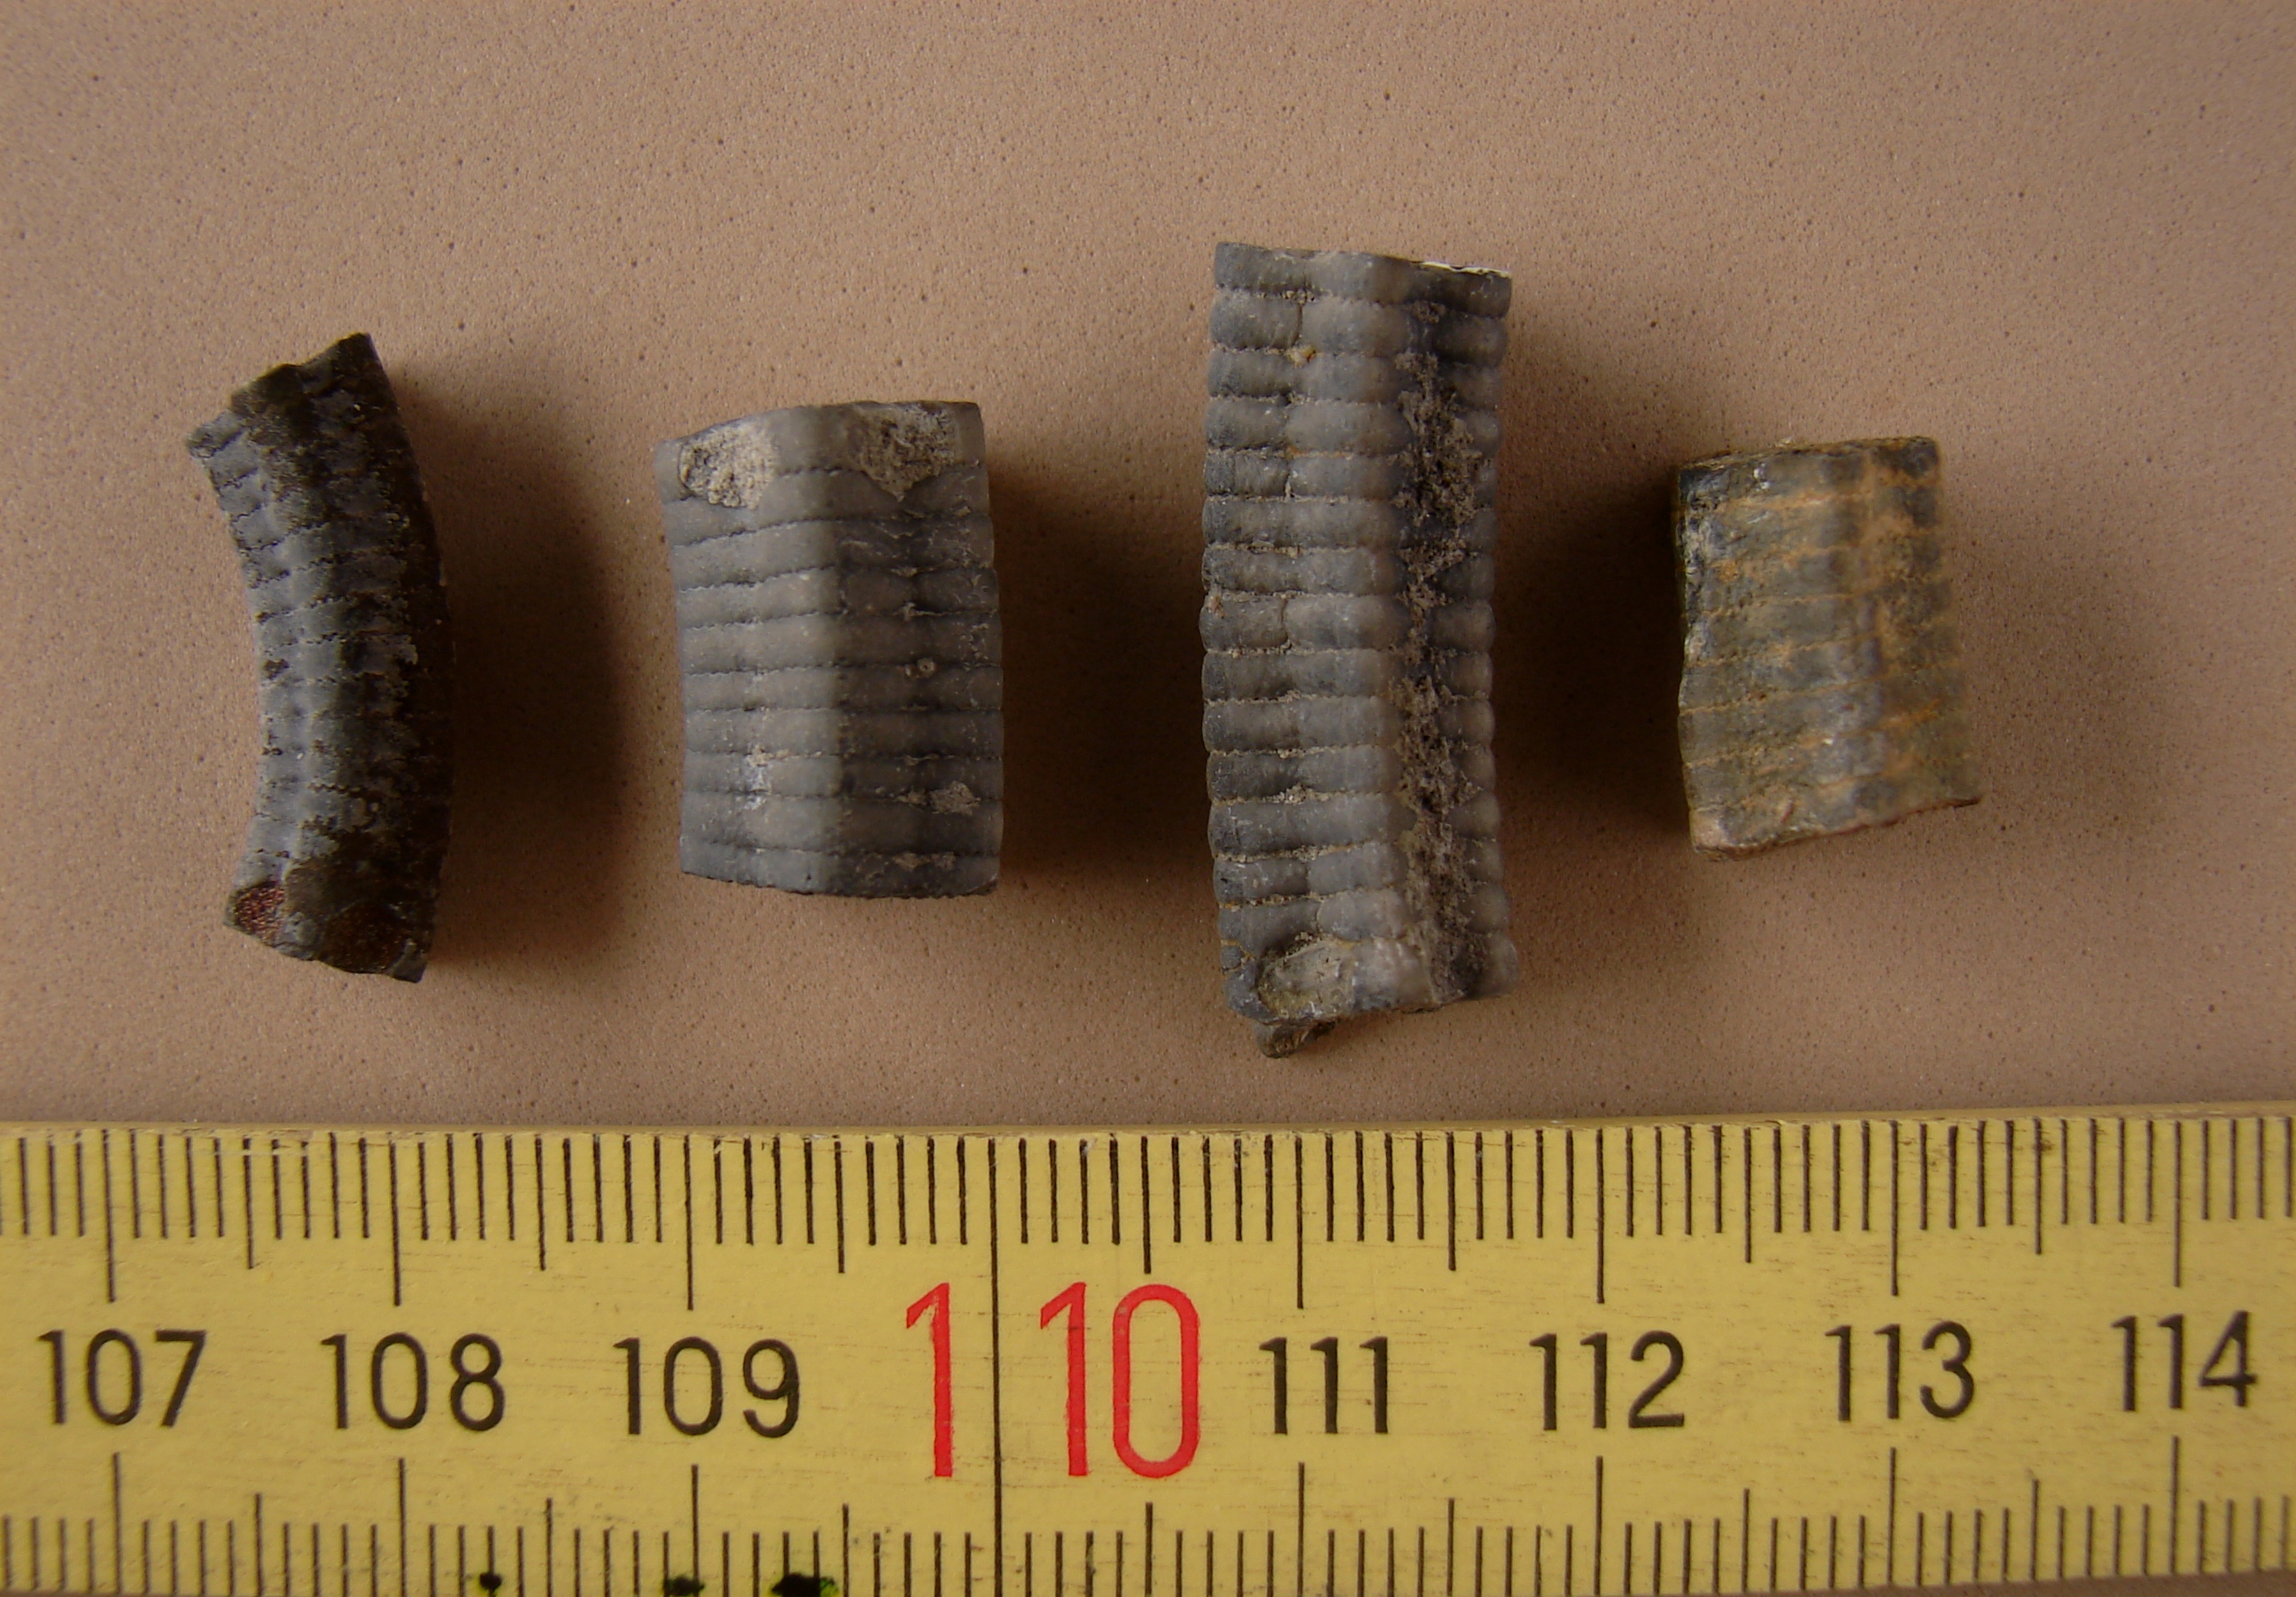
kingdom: Animalia
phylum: Echinodermata
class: Crinoidea
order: Isocrinida
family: Pentacrinitidae
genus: Pentacrinites
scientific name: Pentacrinites Pentacrinus tuberculatus
